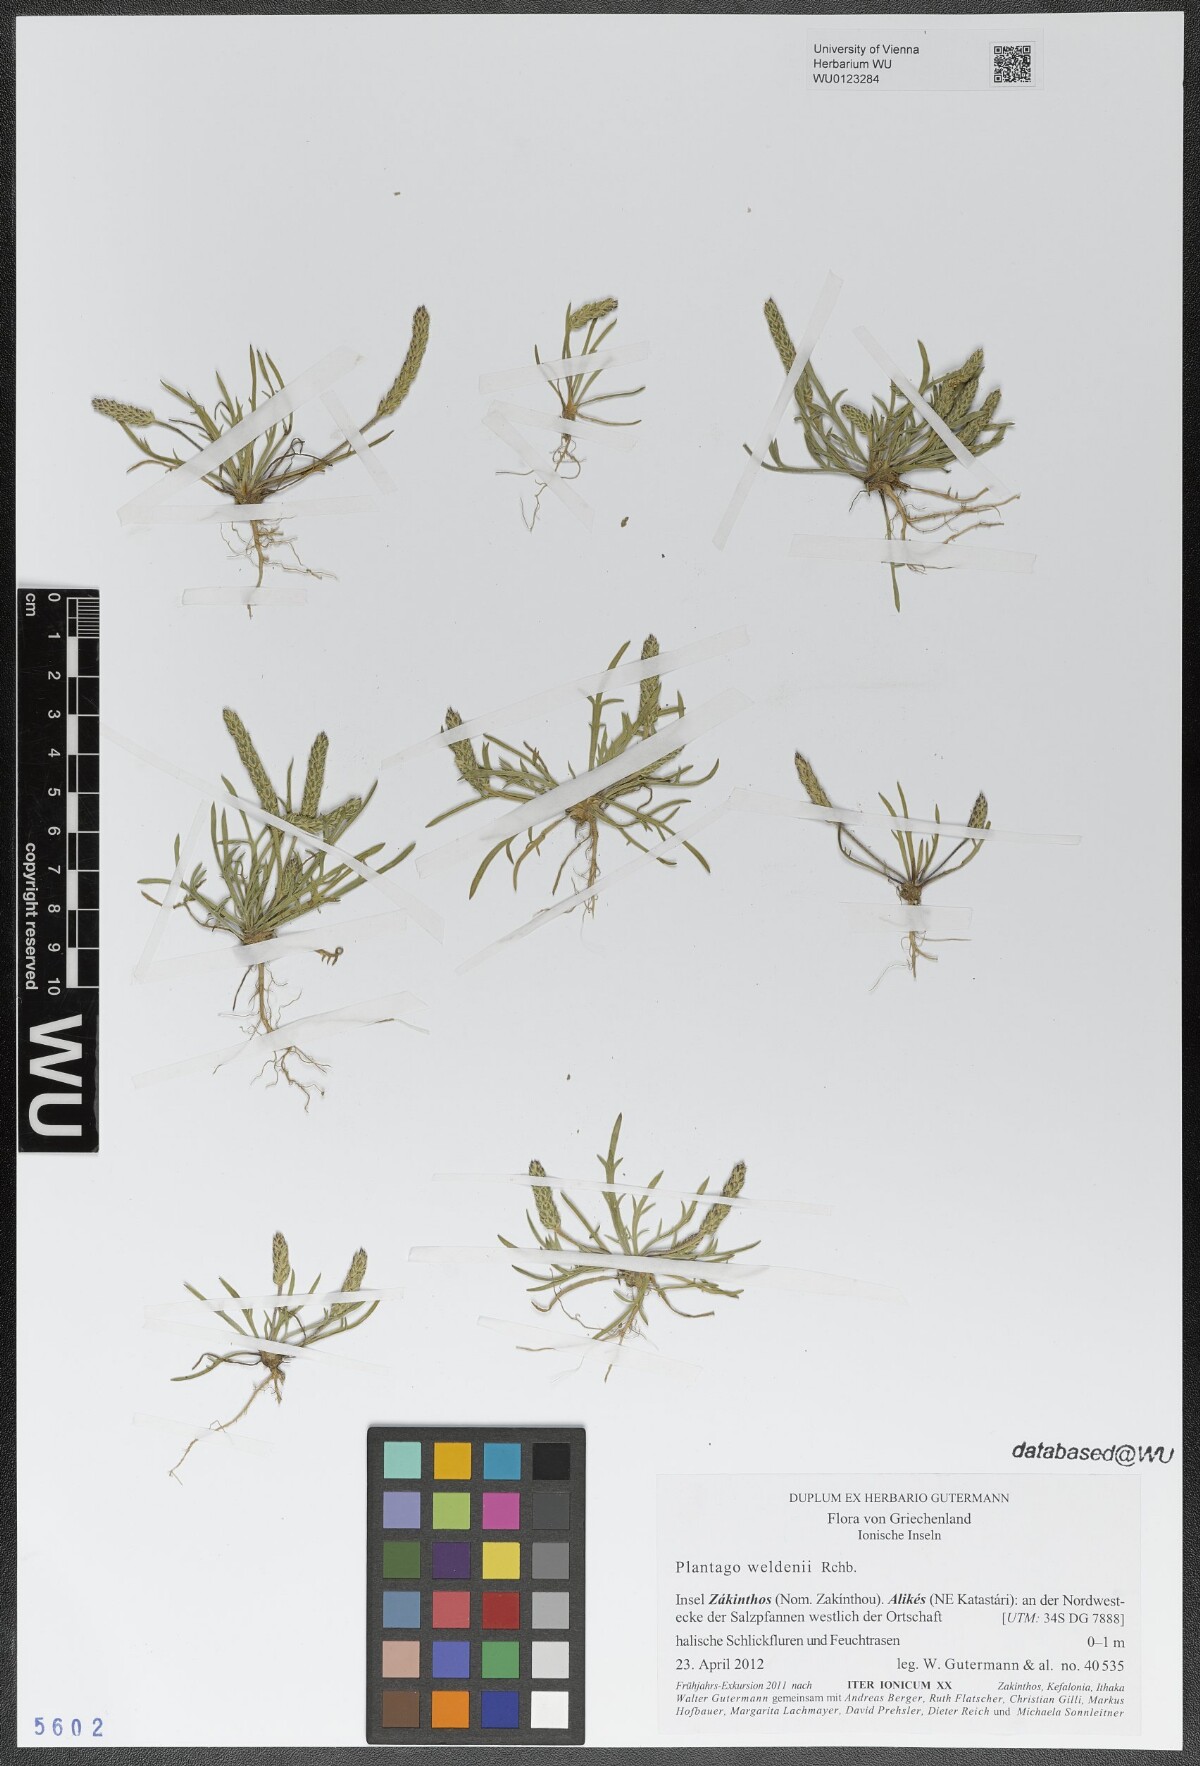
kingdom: Plantae
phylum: Tracheophyta
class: Magnoliopsida
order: Lamiales
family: Plantaginaceae
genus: Plantago
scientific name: Plantago weldenii
